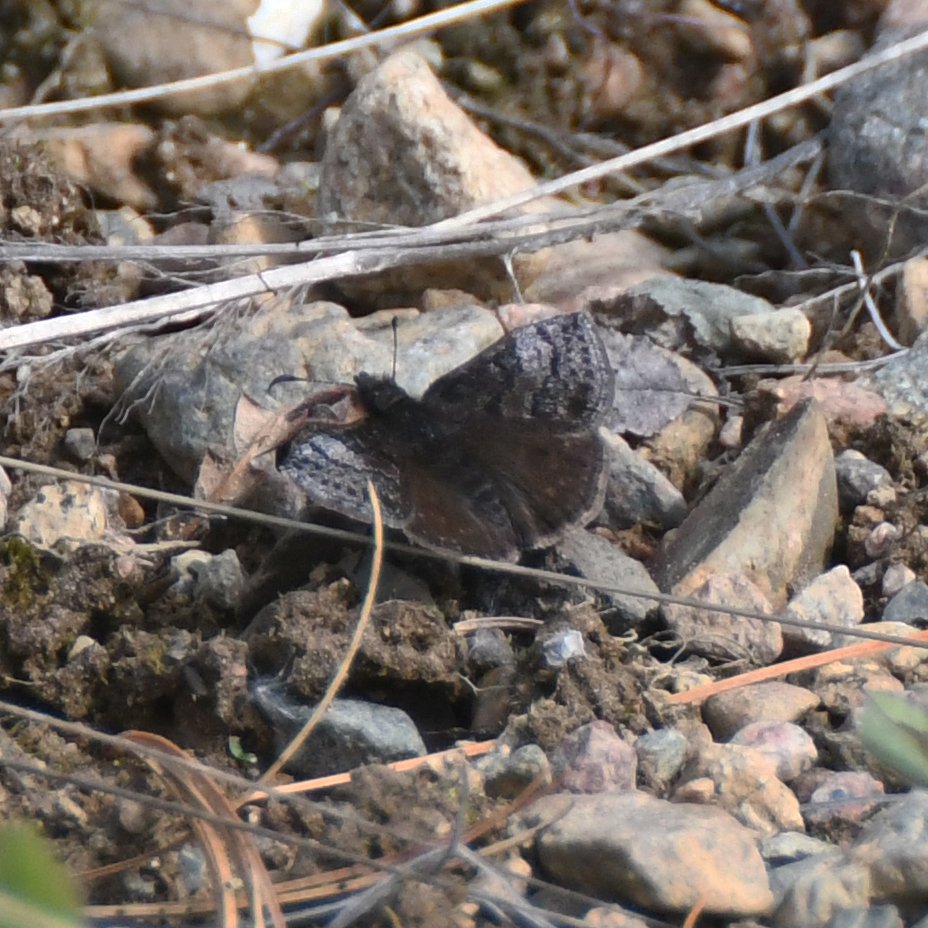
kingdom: Animalia
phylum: Arthropoda
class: Insecta
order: Lepidoptera
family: Hesperiidae
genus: Erynnis
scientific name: Erynnis icelus
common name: Dreamy Duskywing
